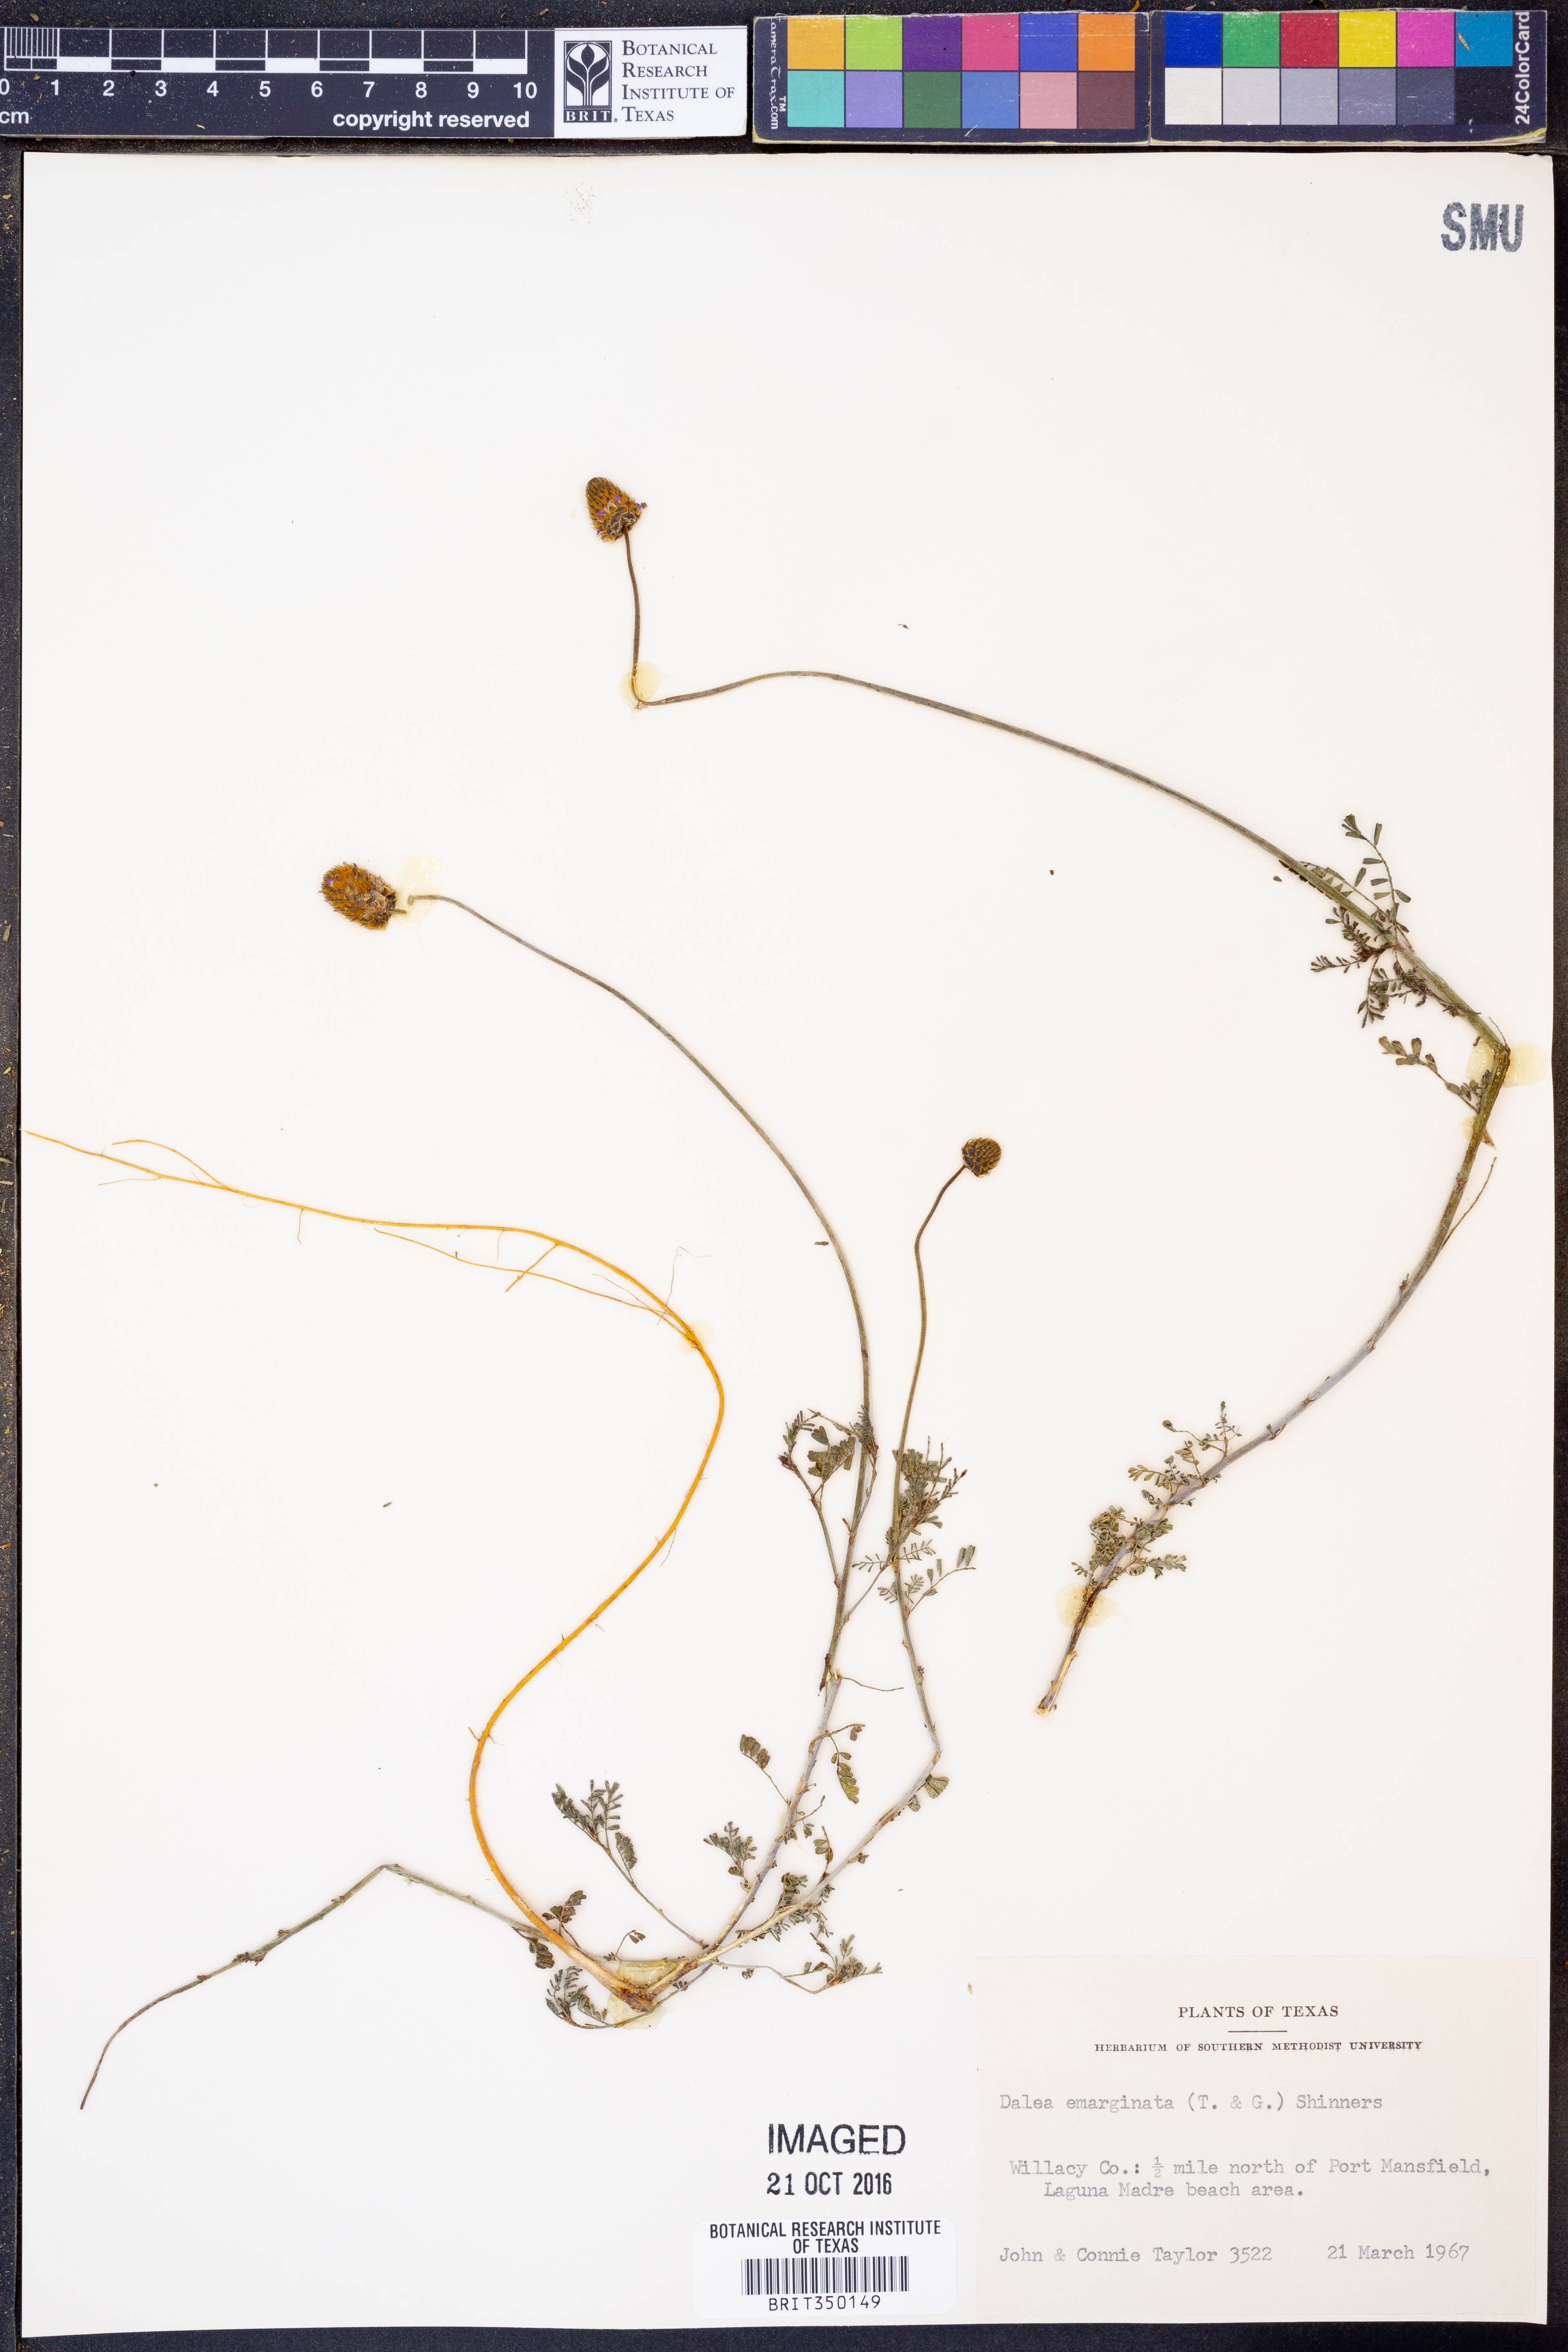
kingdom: Plantae
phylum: Tracheophyta
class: Magnoliopsida
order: Fabales
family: Fabaceae
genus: Dalea
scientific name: Dalea emarginata
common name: Wedgeleaf prairie clover
